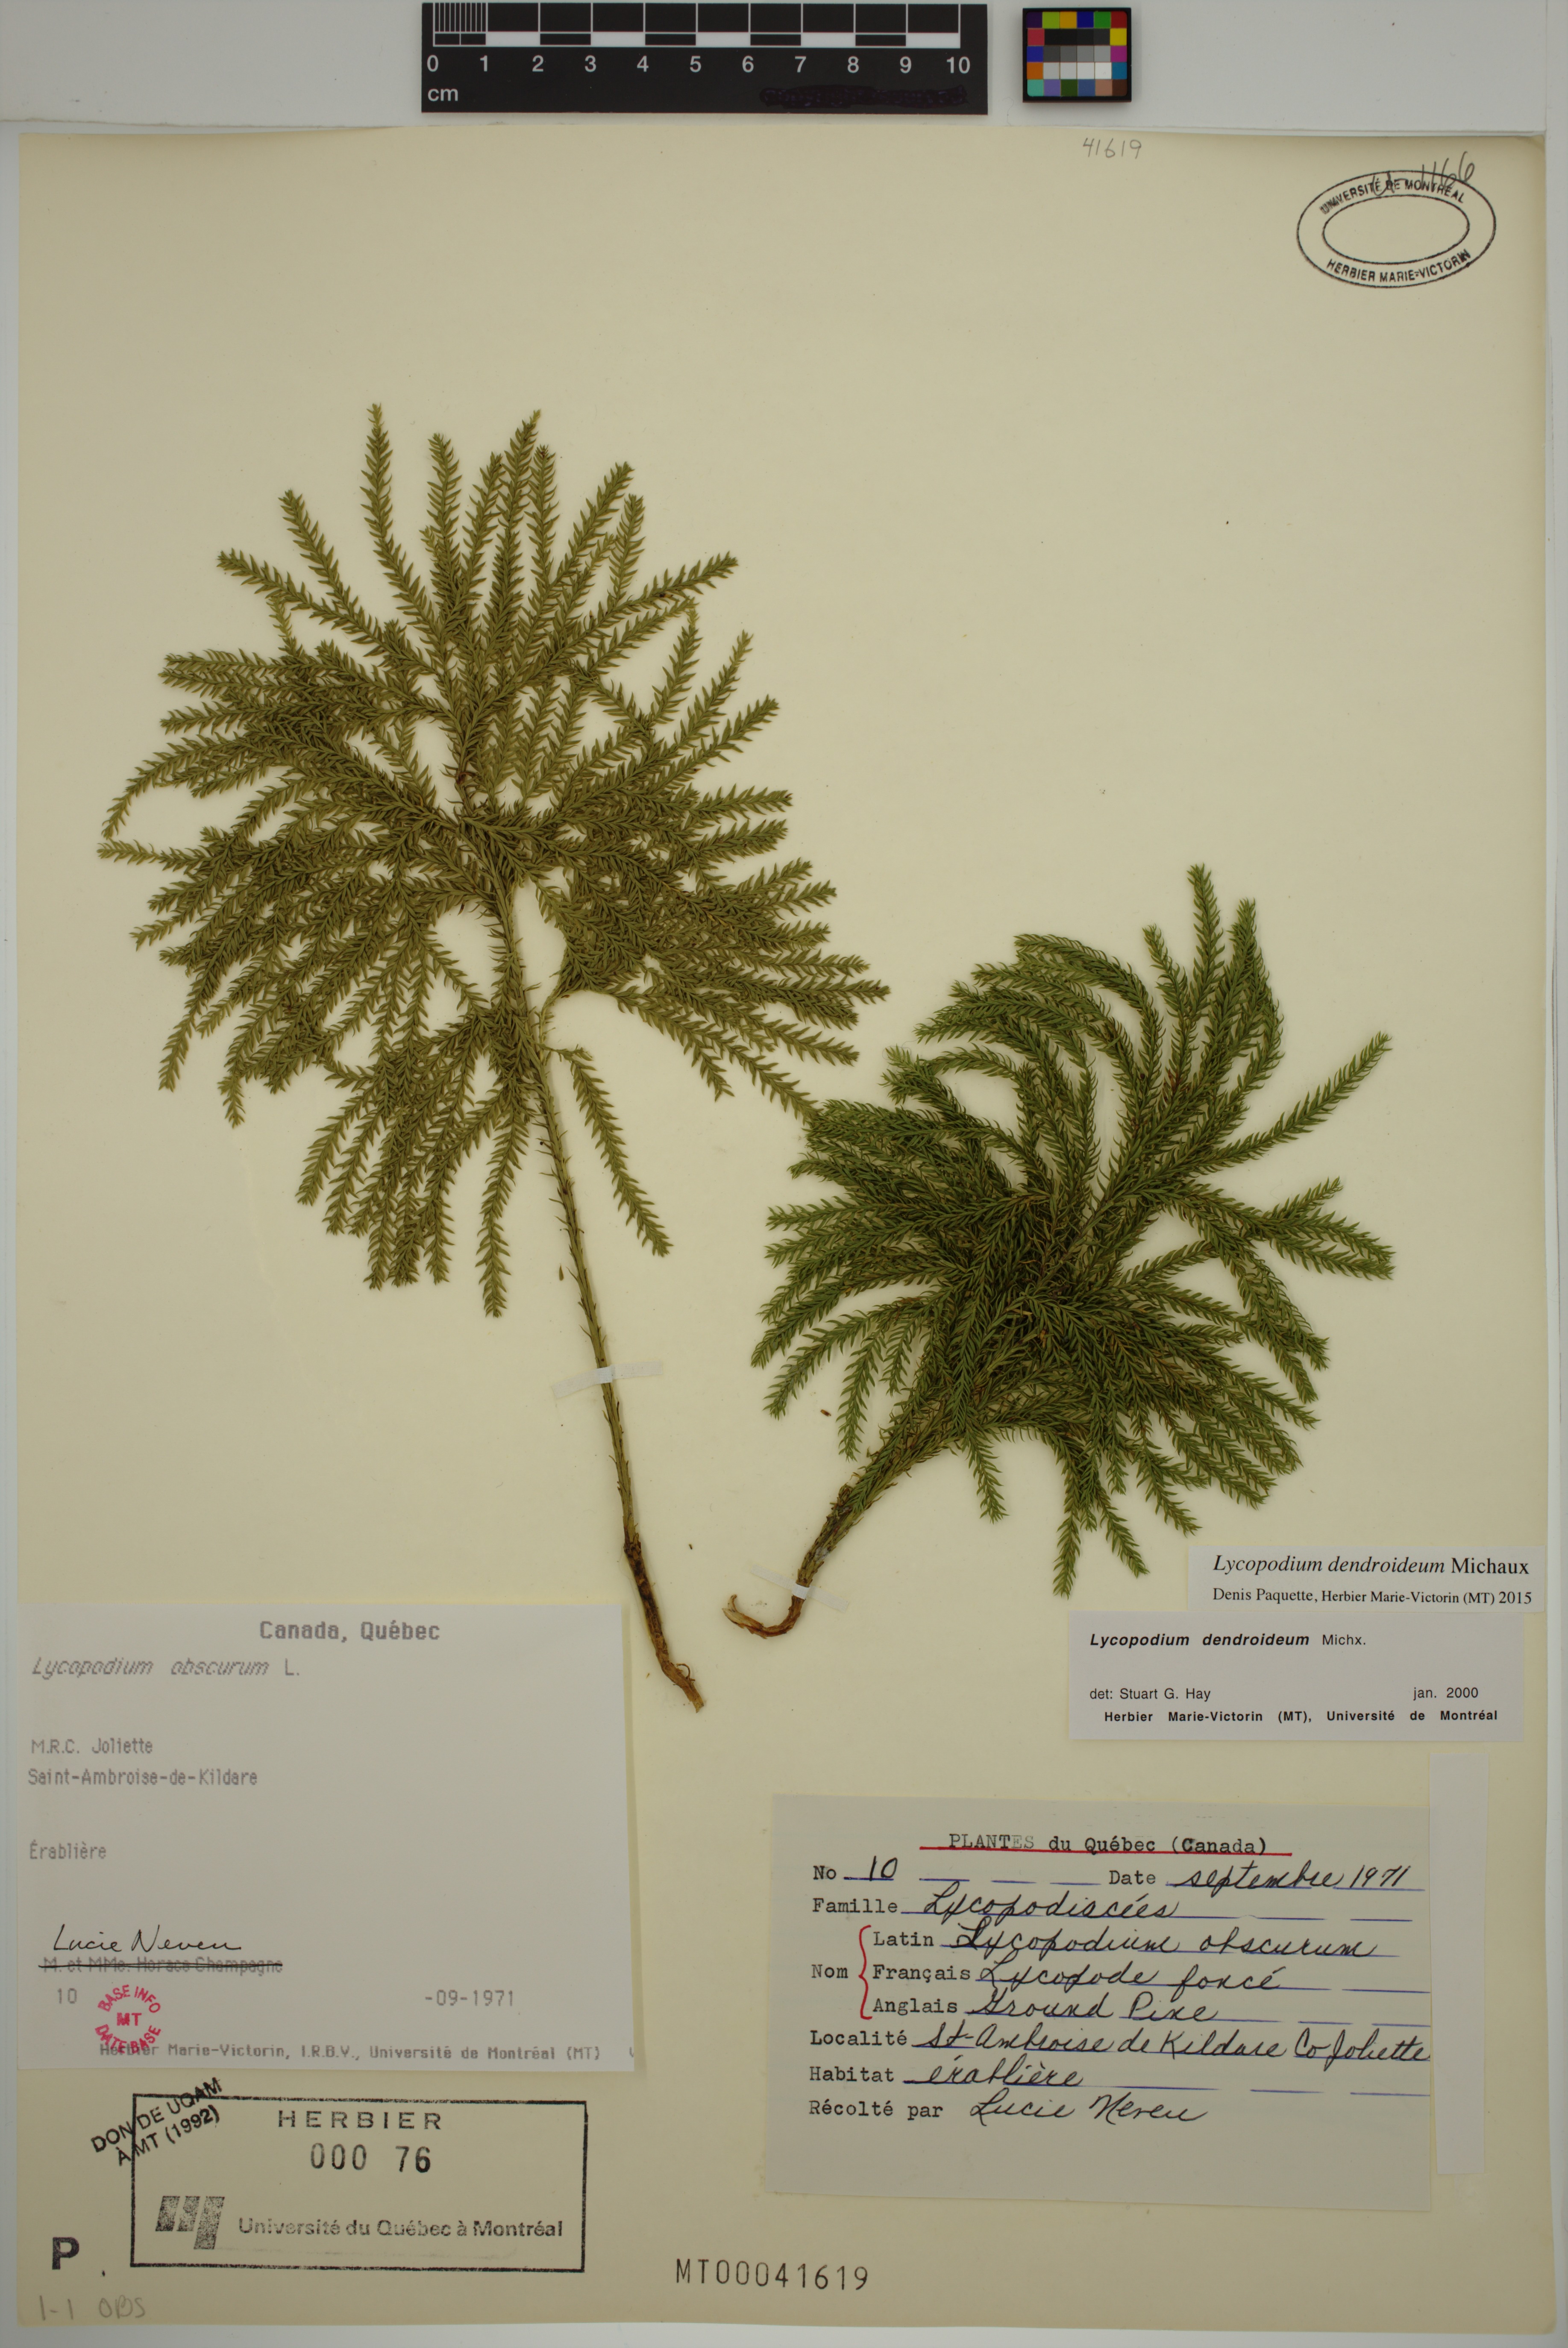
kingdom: Plantae
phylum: Tracheophyta
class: Lycopodiopsida
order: Lycopodiales
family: Lycopodiaceae
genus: Dendrolycopodium
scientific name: Dendrolycopodium dendroideum
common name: Northern tree-clubmoss
